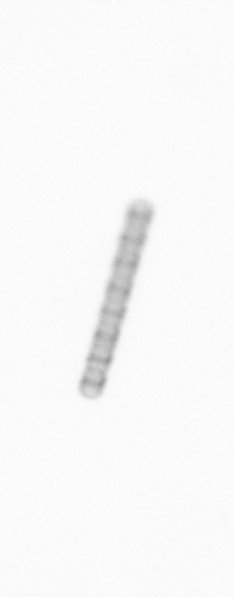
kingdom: Chromista
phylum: Ochrophyta
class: Bacillariophyceae
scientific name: Bacillariophyceae
